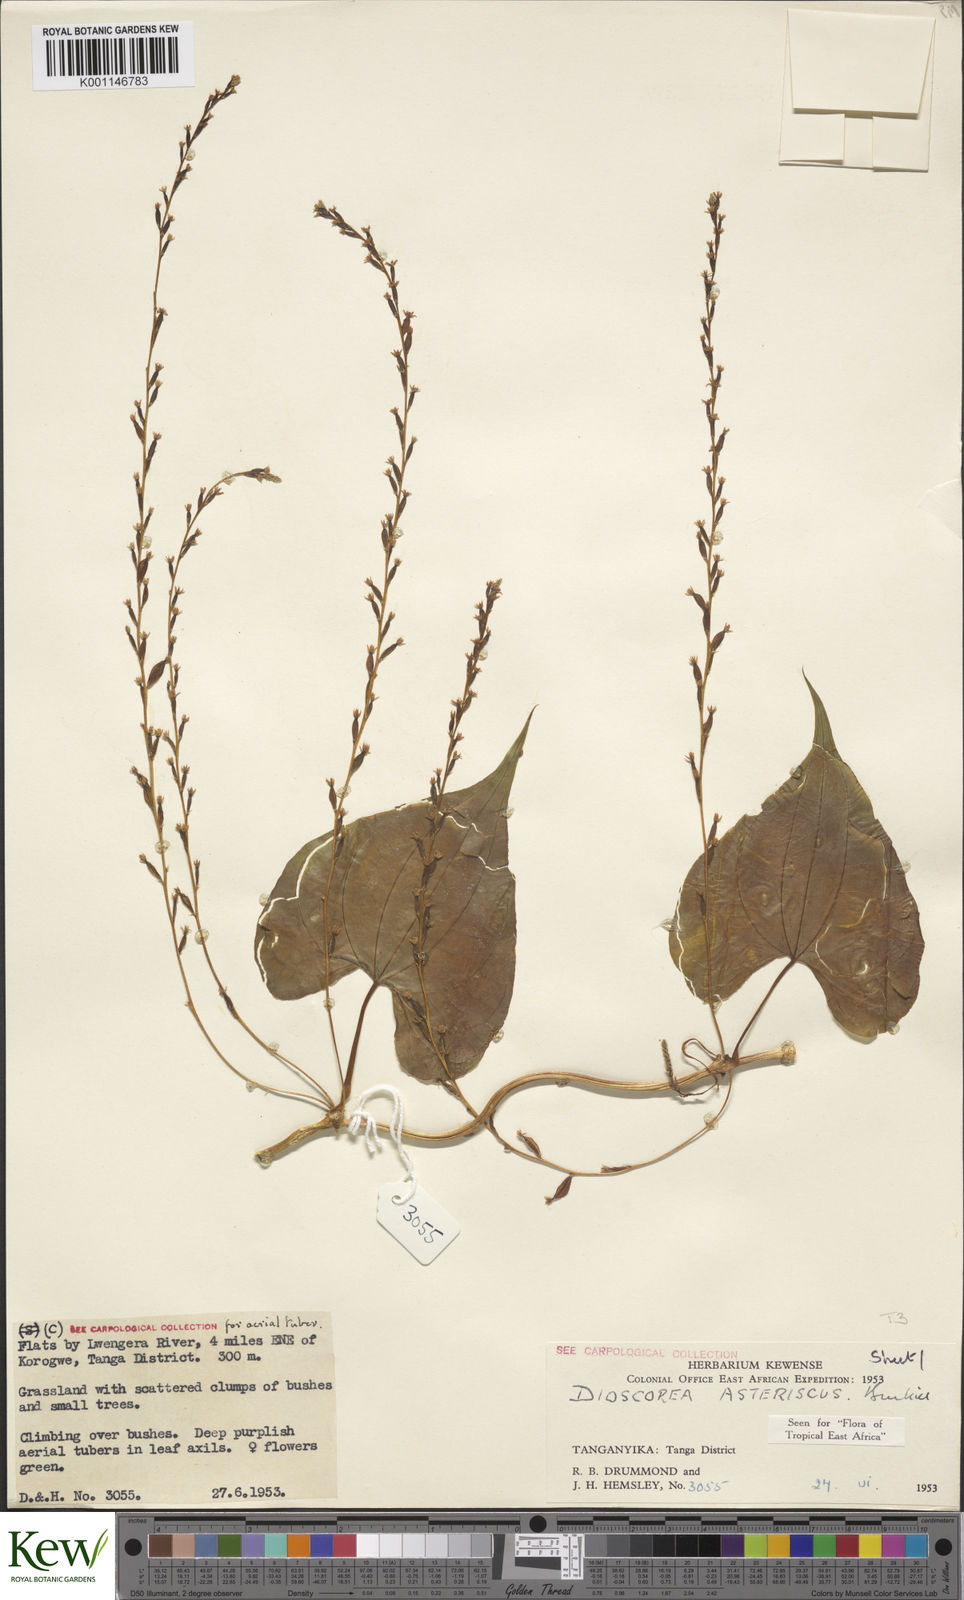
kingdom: Plantae
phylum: Tracheophyta
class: Liliopsida
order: Dioscoreales
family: Dioscoreaceae
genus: Dioscorea
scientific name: Dioscorea asteriscus
